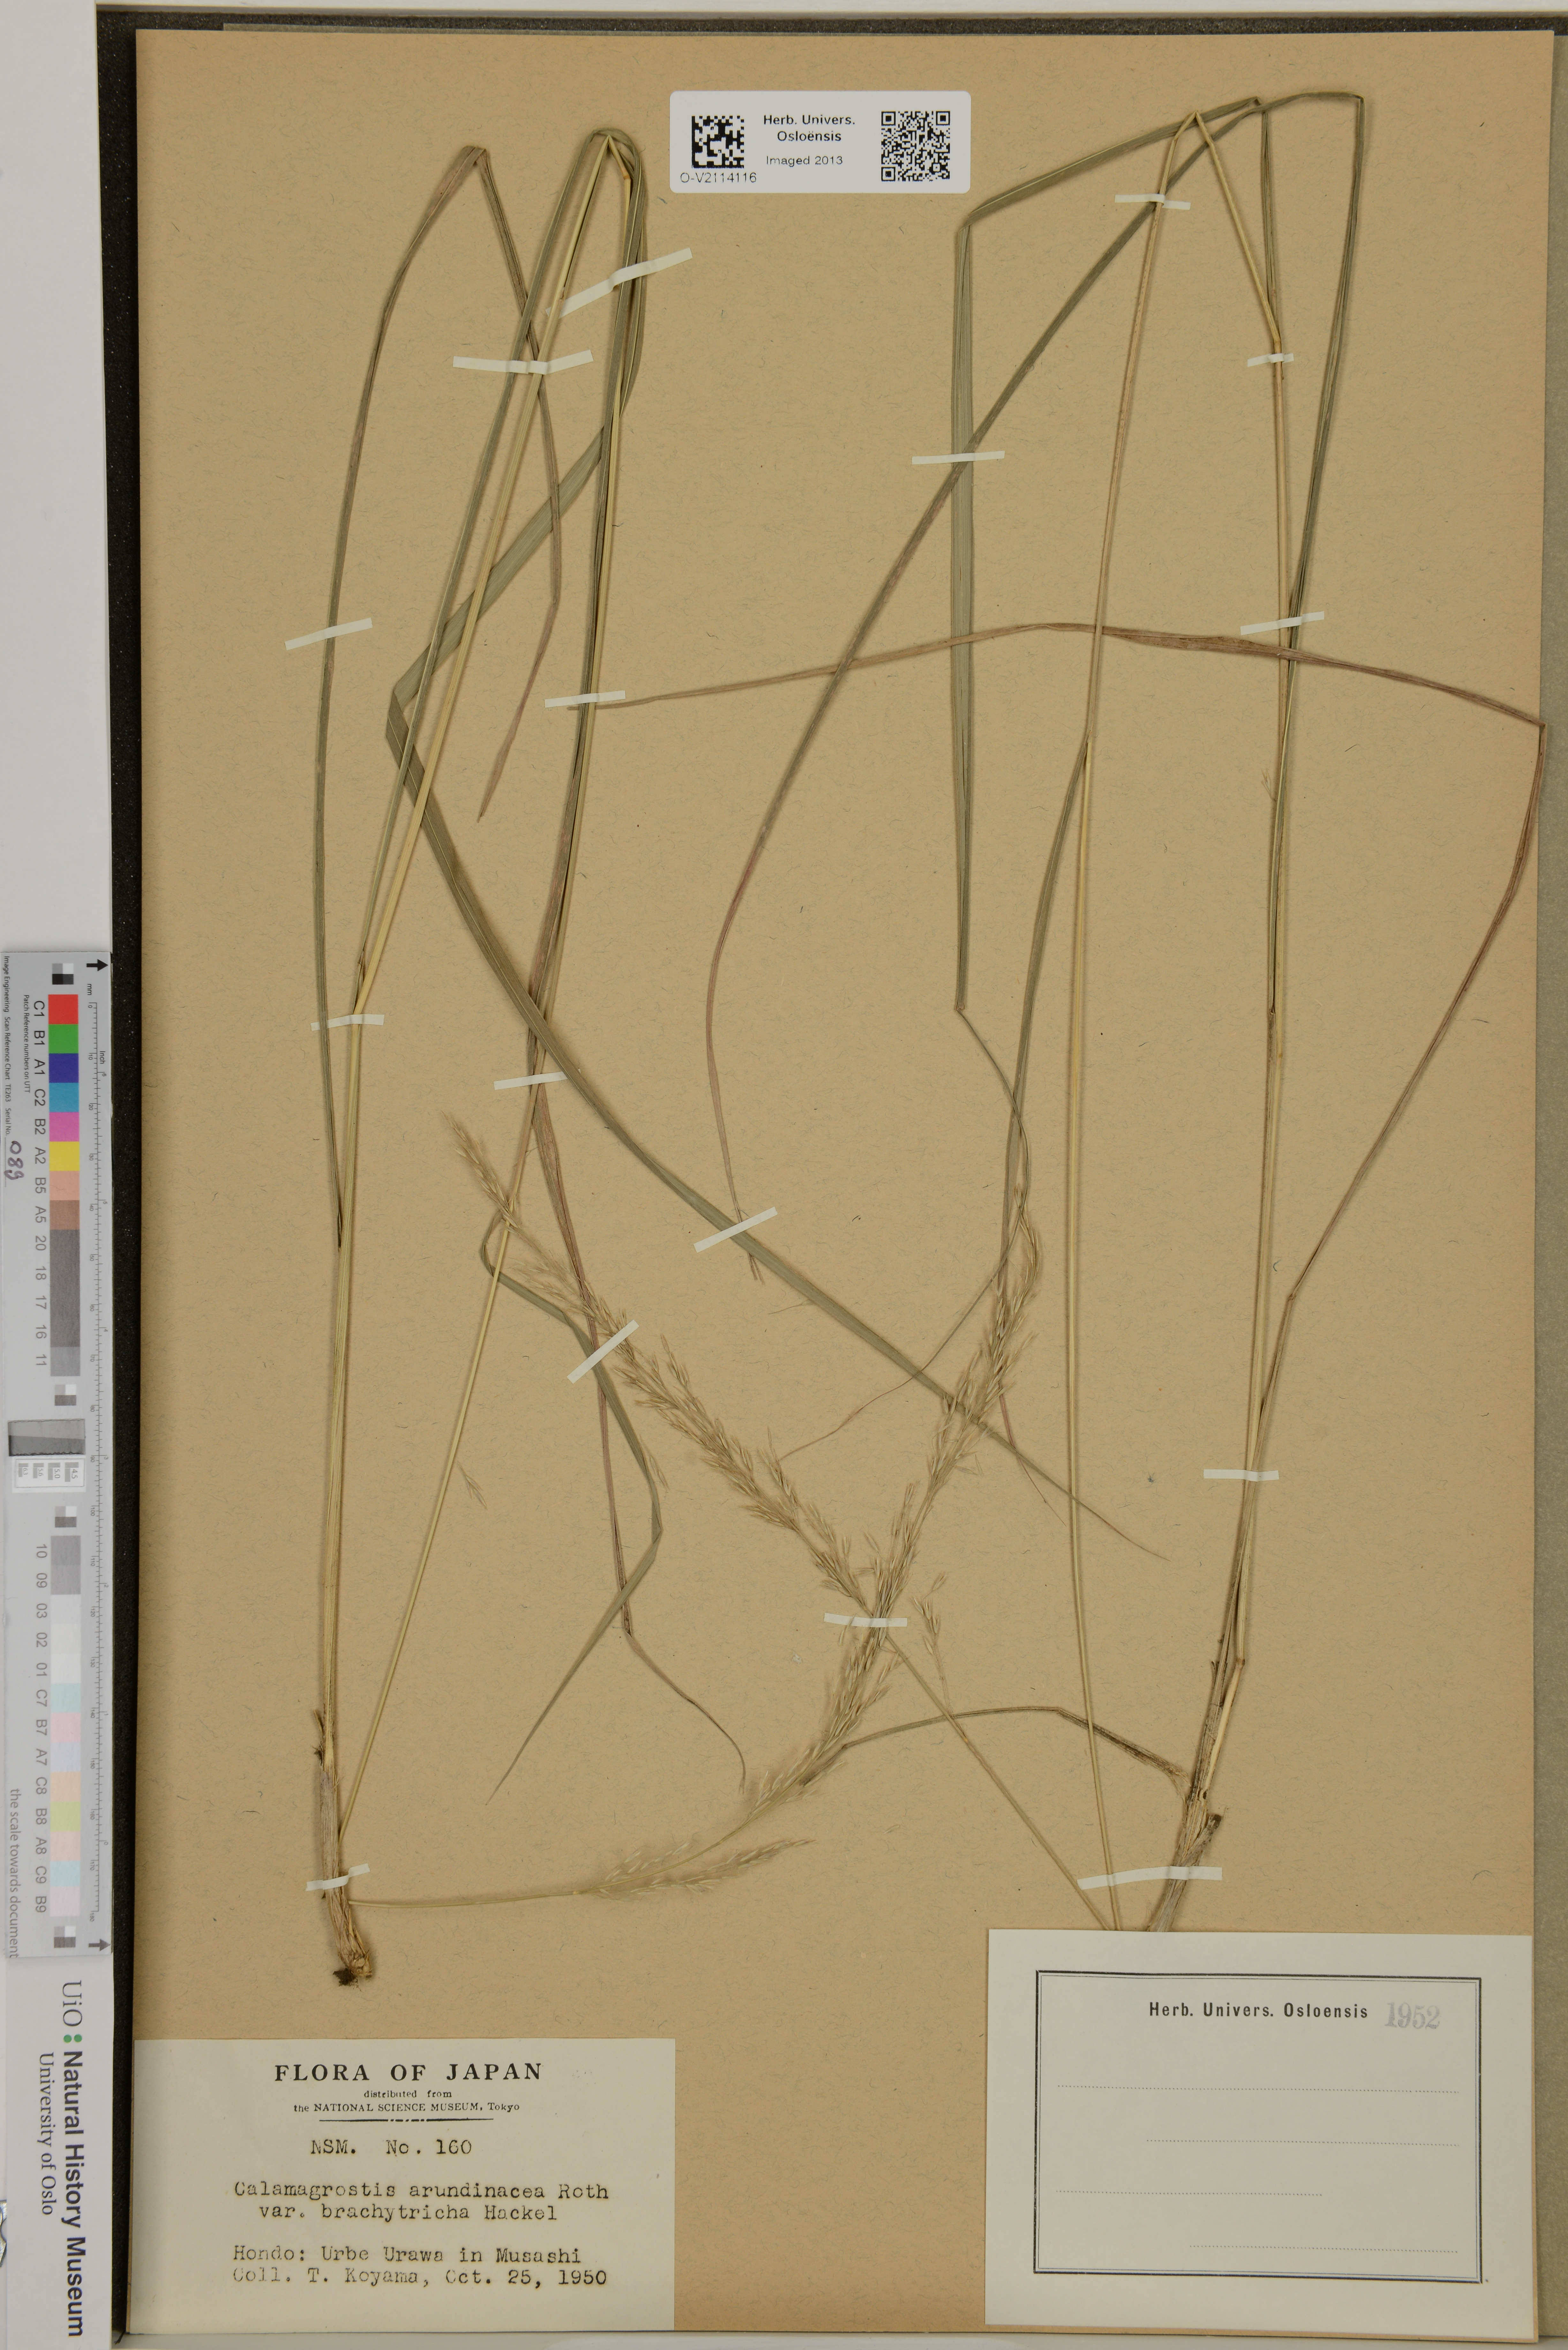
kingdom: Plantae
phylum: Tracheophyta
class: Liliopsida
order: Poales
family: Poaceae
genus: Calamagrostis
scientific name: Calamagrostis arundinacea
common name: Metskastik
